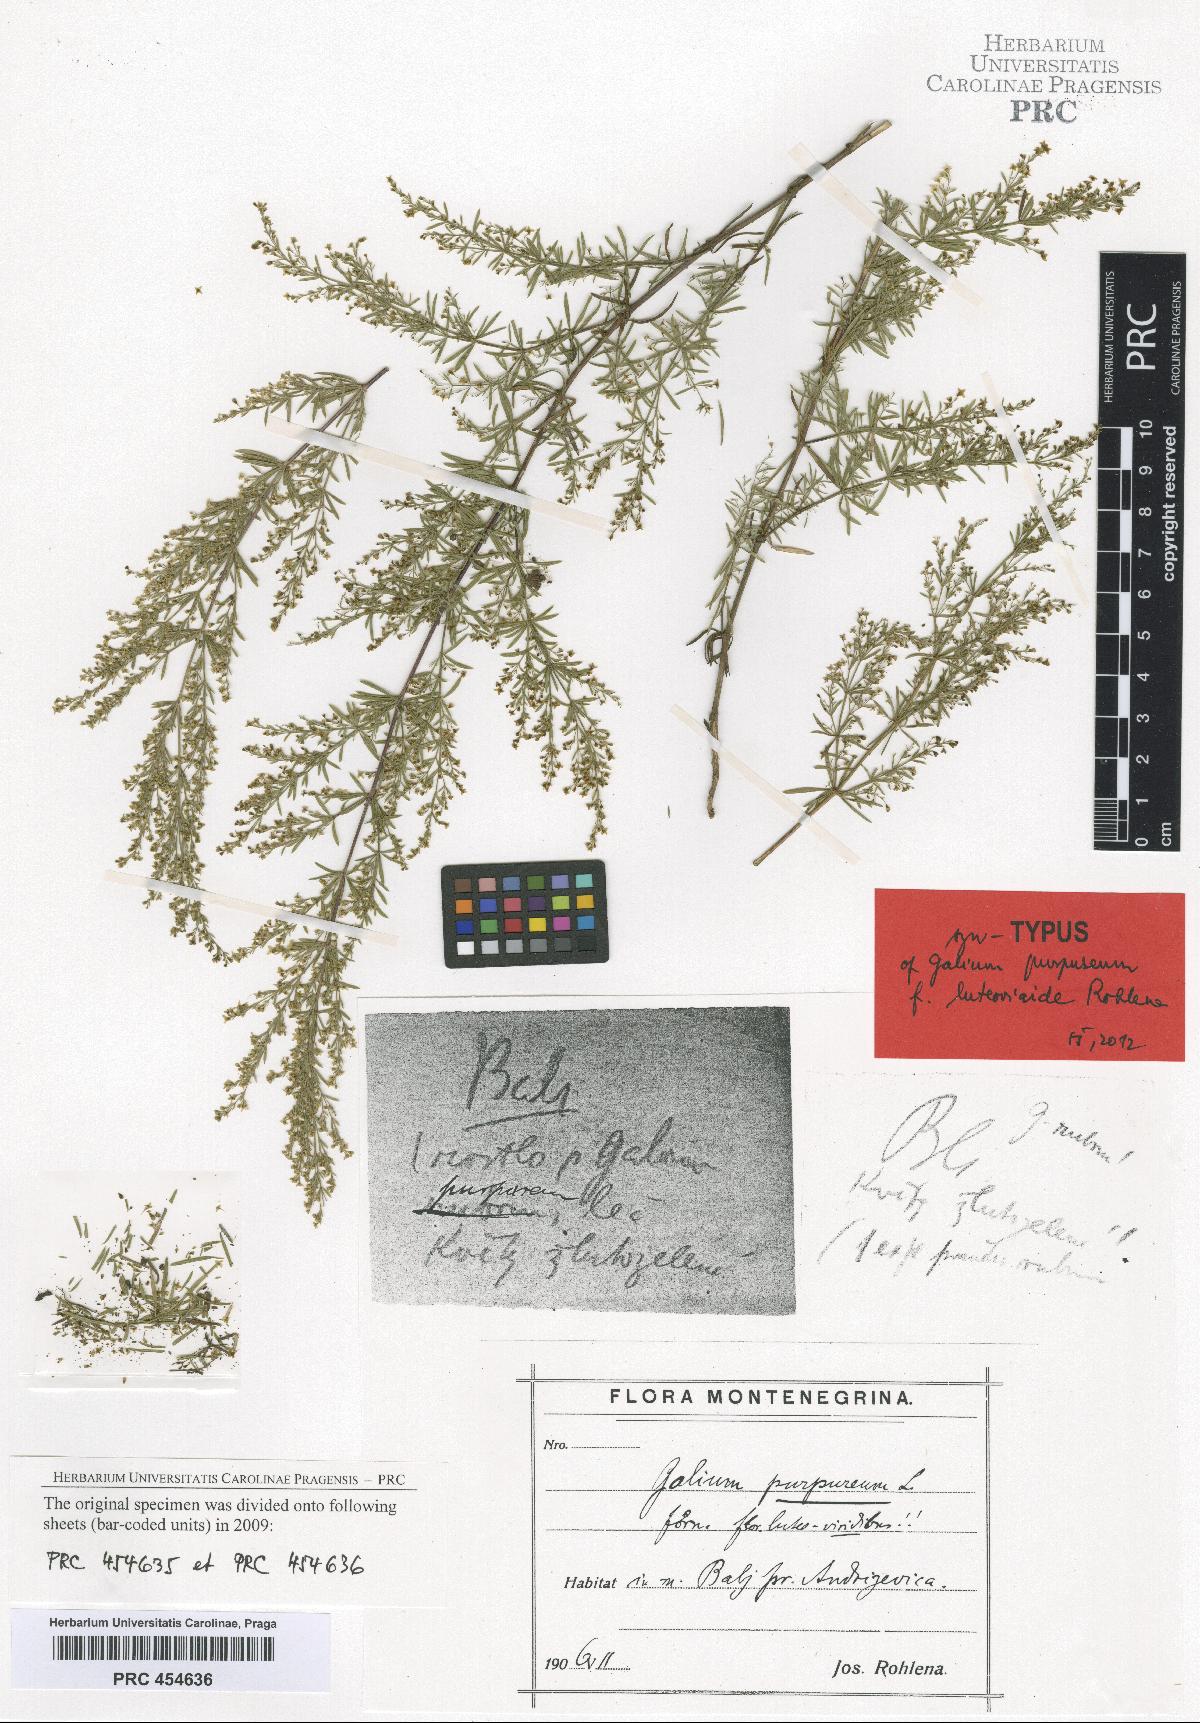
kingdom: Plantae
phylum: Tracheophyta
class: Magnoliopsida
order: Gentianales
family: Rubiaceae
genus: Thliphthisa
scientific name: Thliphthisa purpurea
